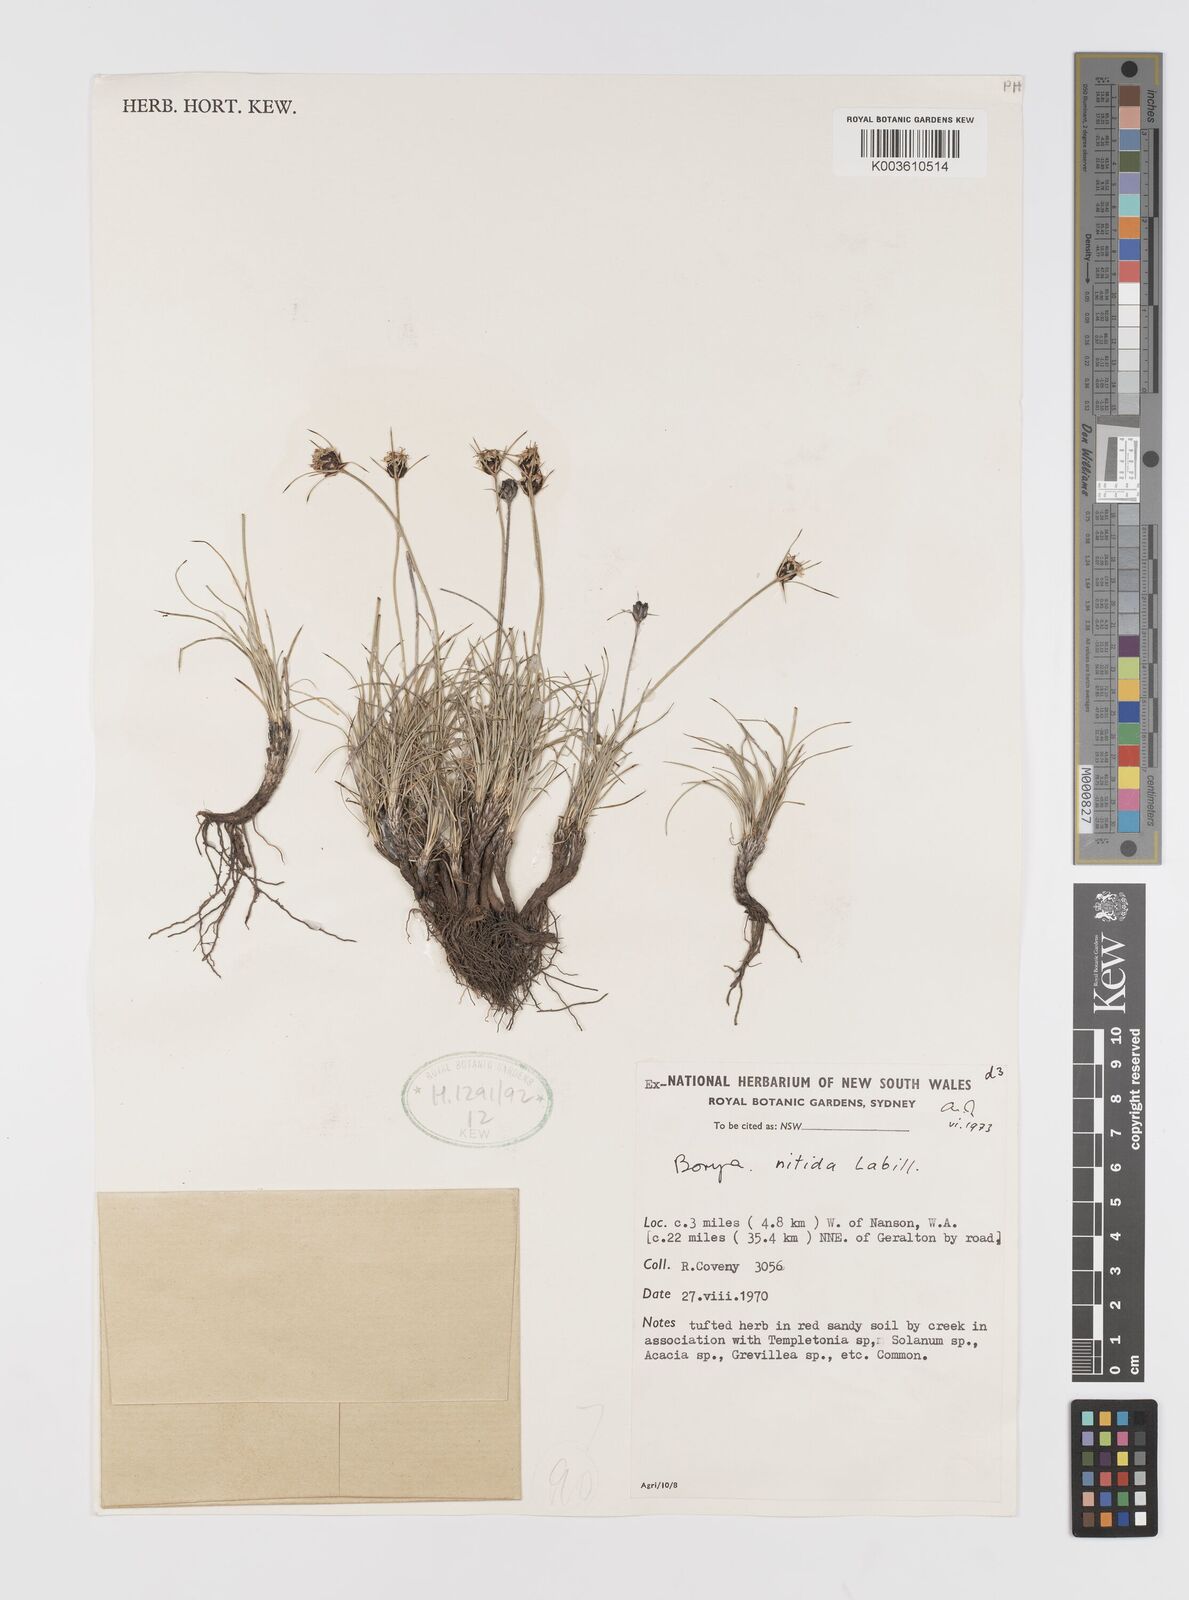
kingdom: Plantae
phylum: Tracheophyta
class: Liliopsida
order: Asparagales
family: Boryaceae
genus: Borya
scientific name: Borya nitida
